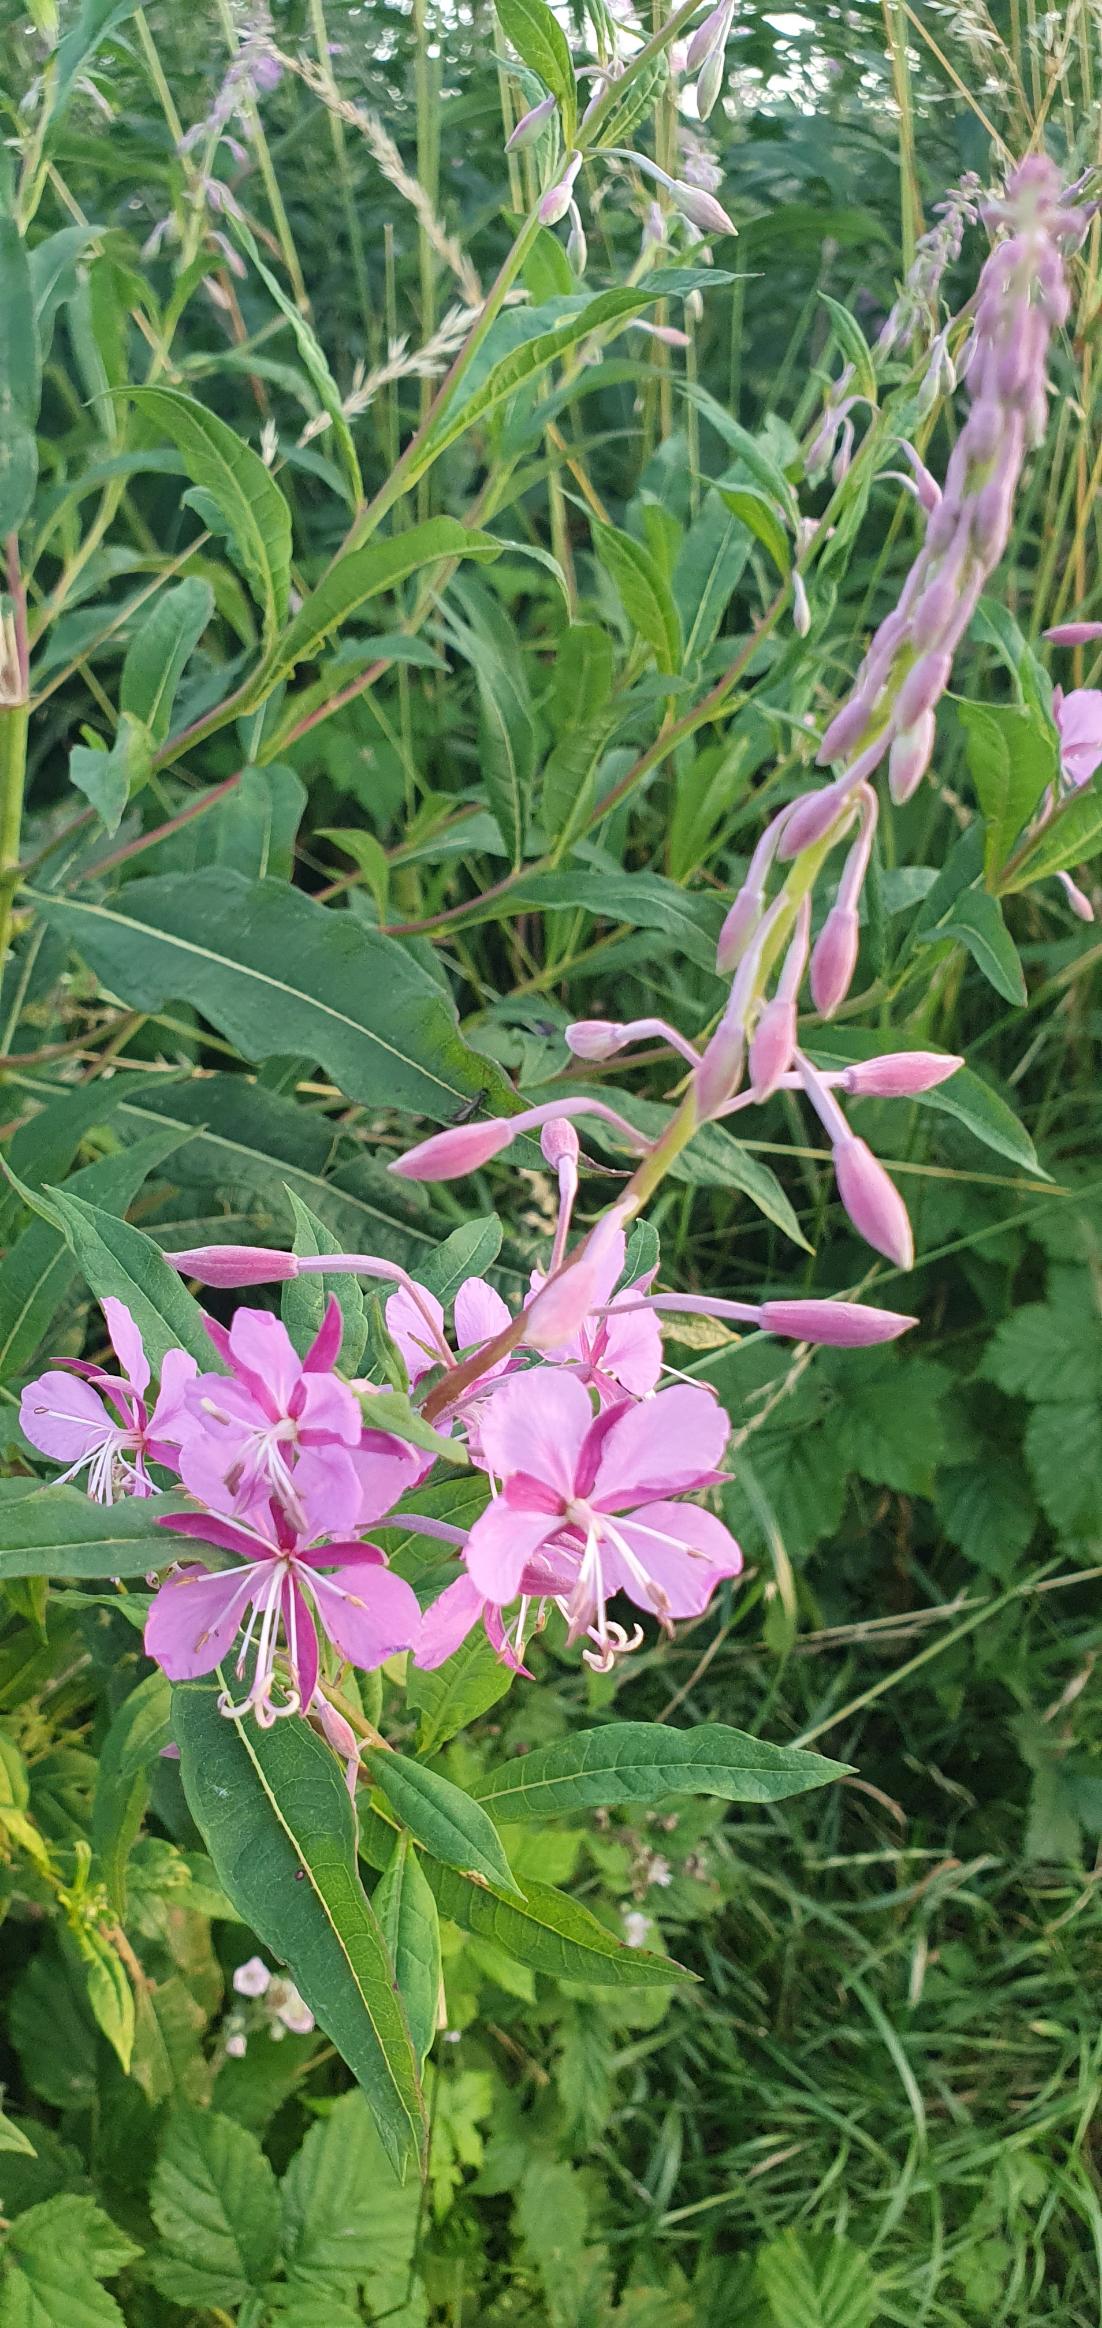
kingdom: Plantae
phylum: Tracheophyta
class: Magnoliopsida
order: Myrtales
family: Onagraceae
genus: Chamaenerion
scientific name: Chamaenerion angustifolium
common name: Gederams
